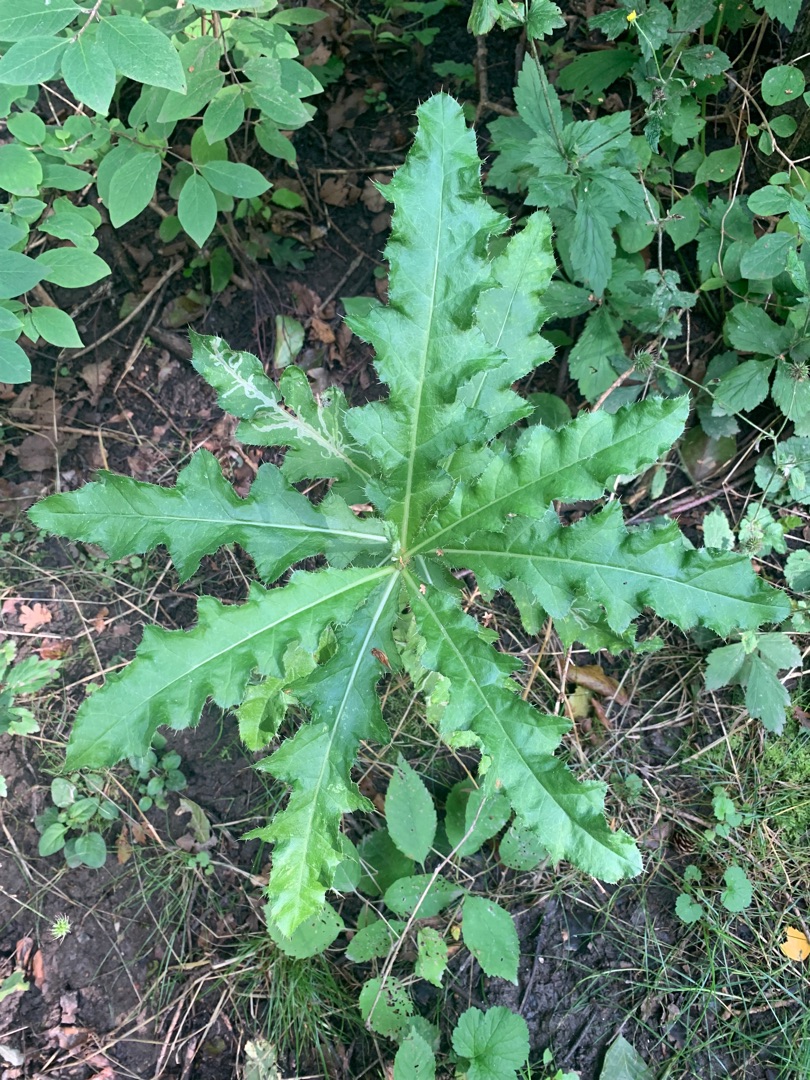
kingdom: Plantae
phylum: Tracheophyta
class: Magnoliopsida
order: Asterales
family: Asteraceae
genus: Cirsium
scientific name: Cirsium arvense
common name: Ager-tidsel
